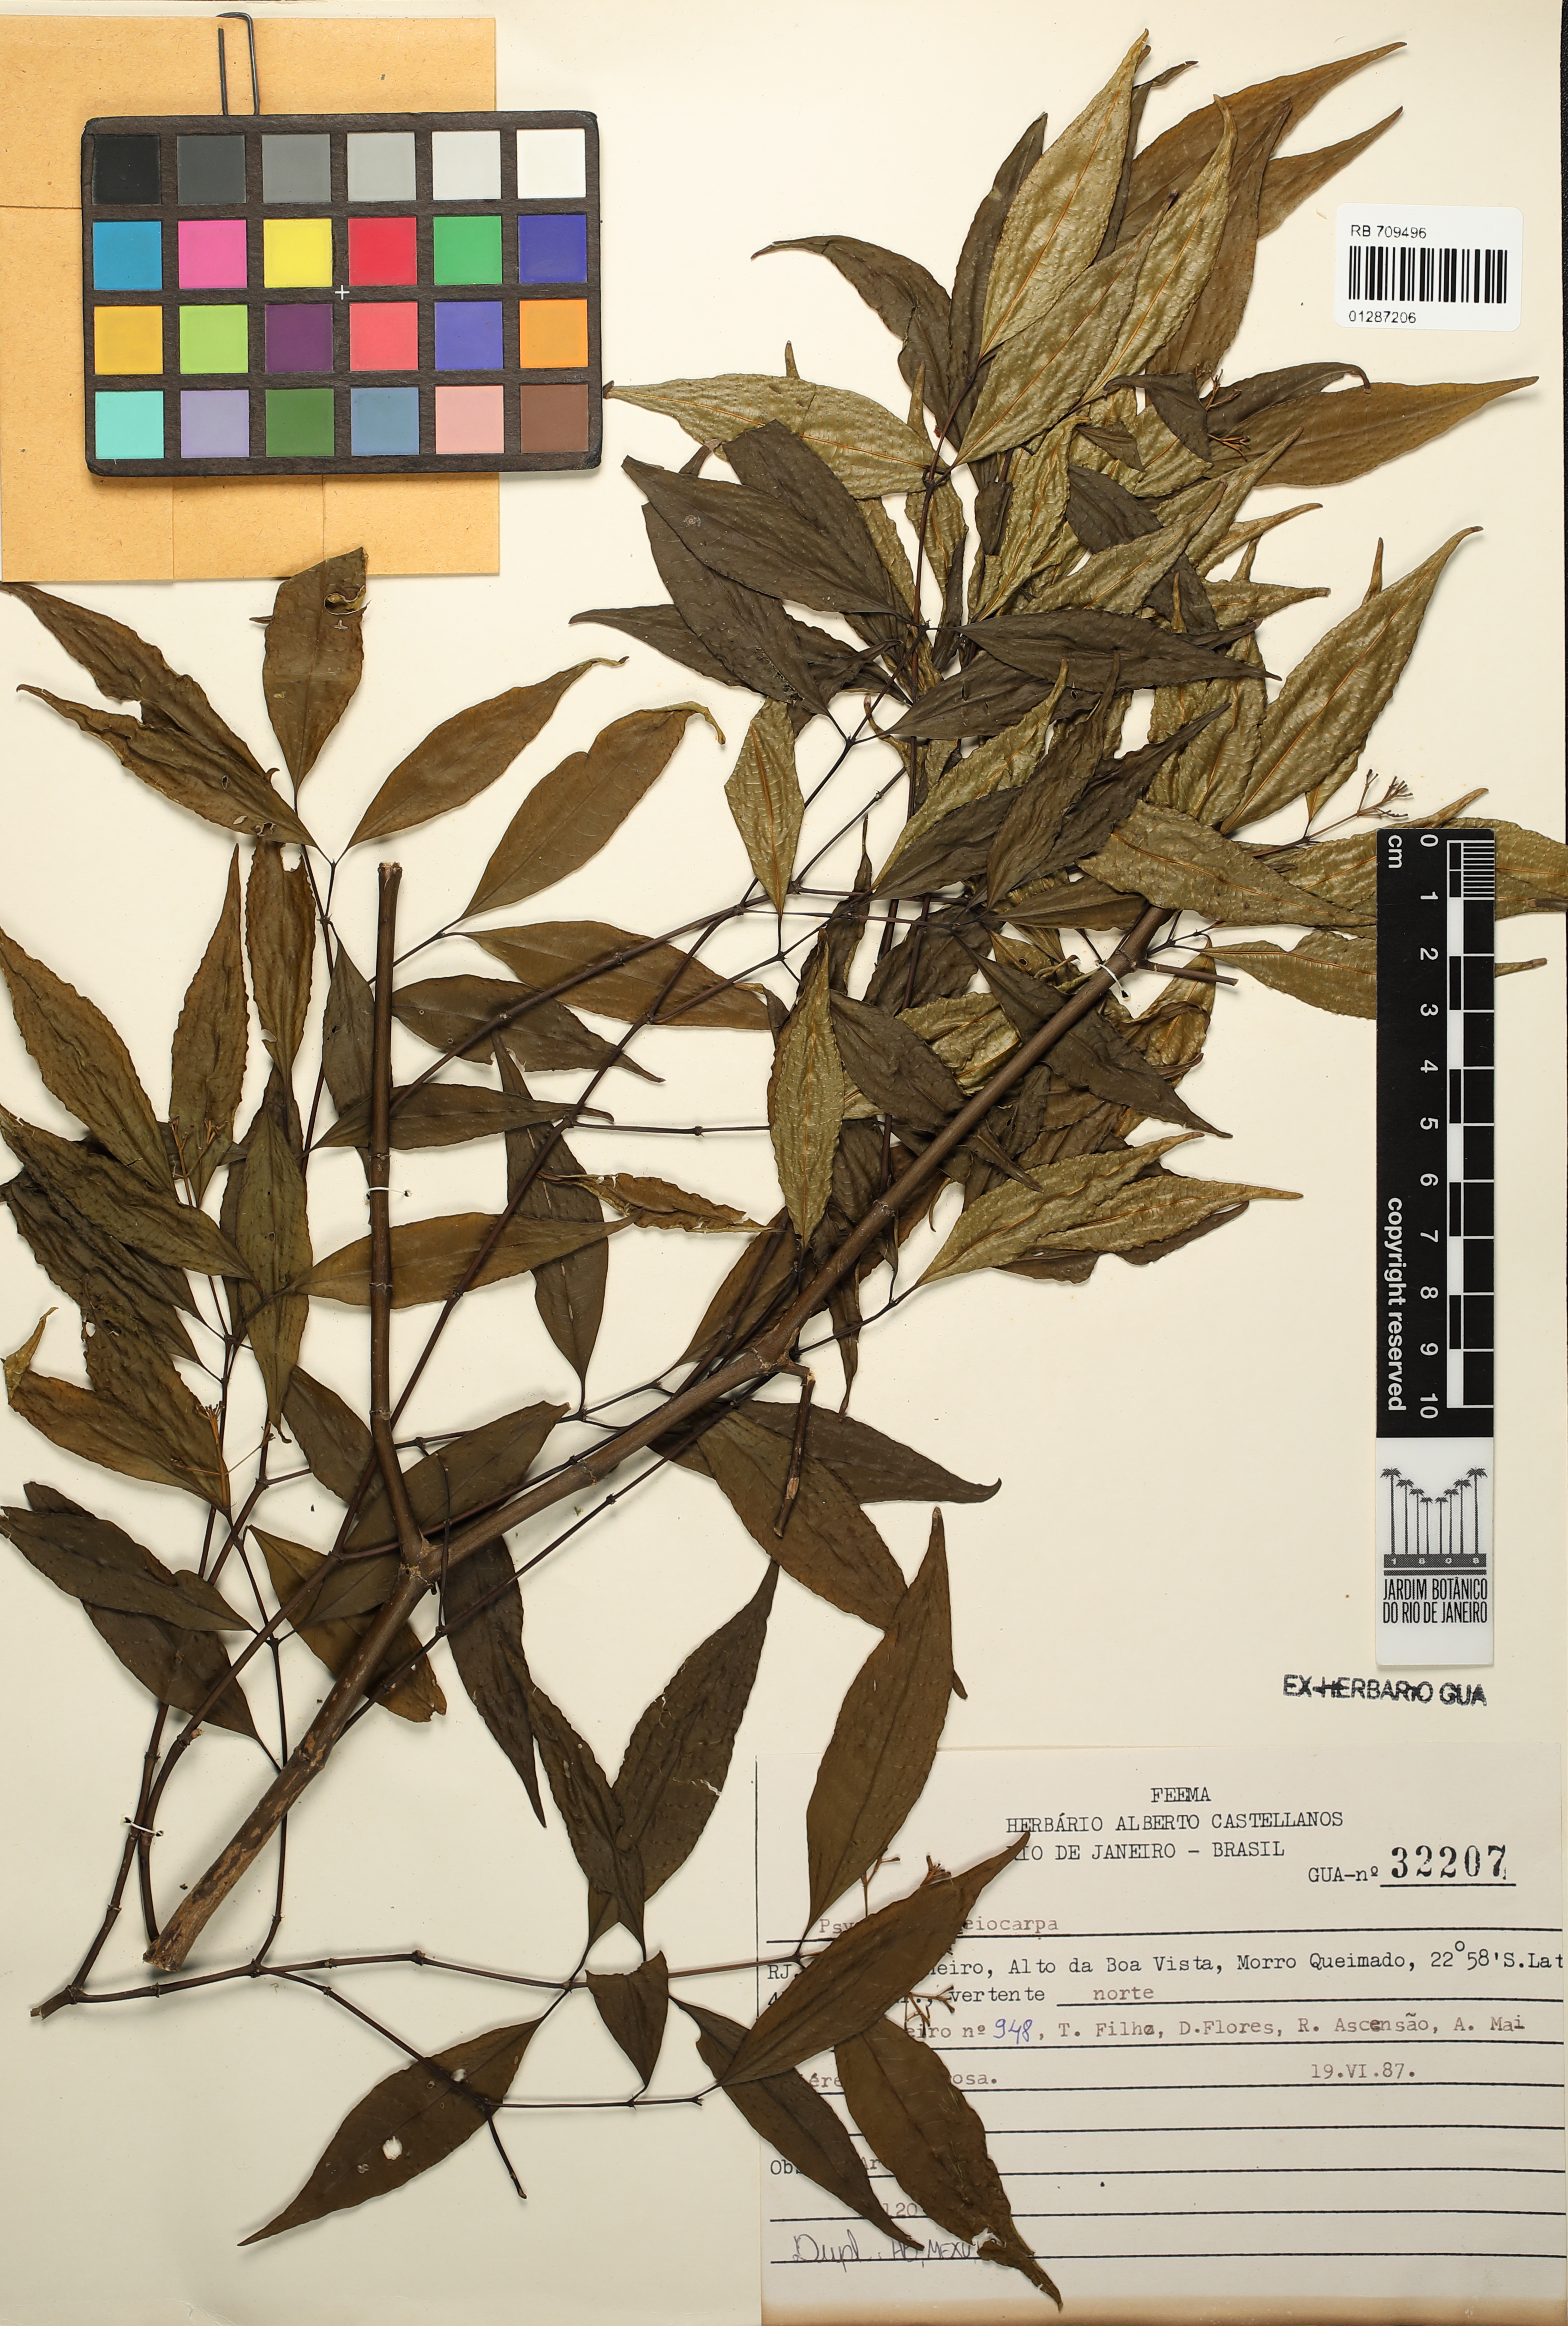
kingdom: Plantae
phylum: Tracheophyta
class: Magnoliopsida
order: Gentianales
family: Rubiaceae
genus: Psychotria
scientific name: Psychotria leiocarpa
